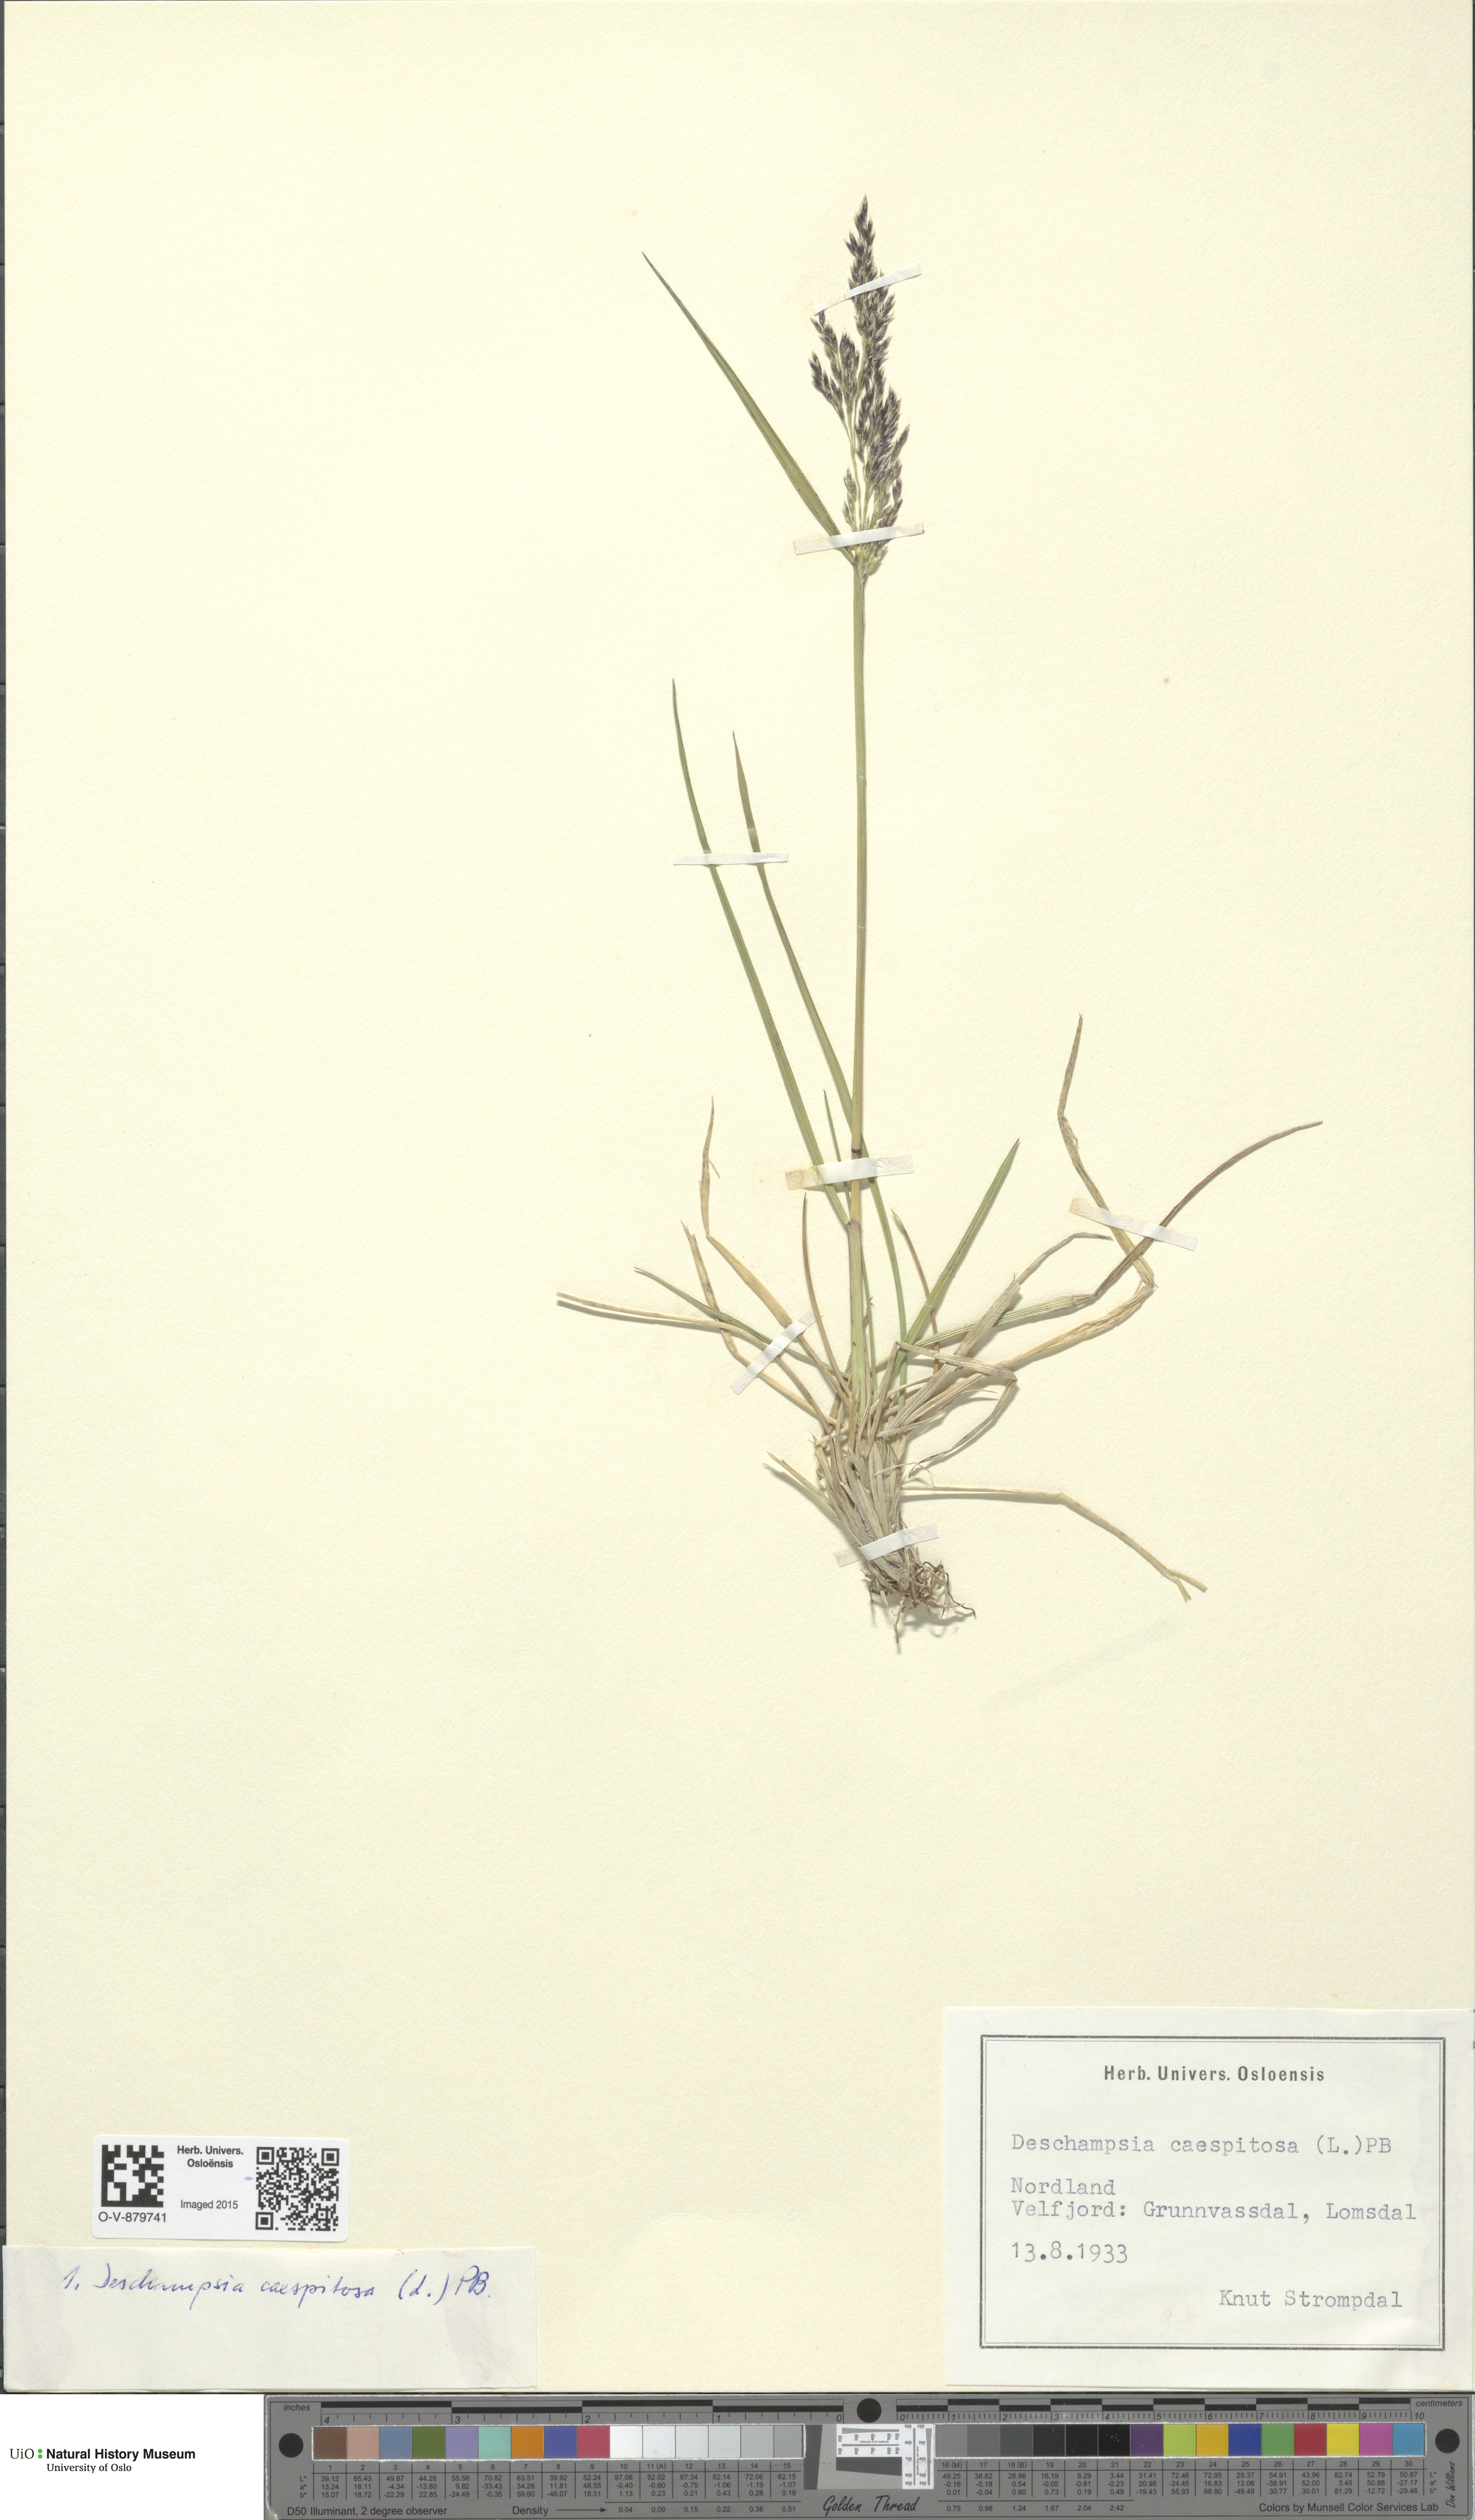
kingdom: Plantae
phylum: Tracheophyta
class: Liliopsida
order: Poales
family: Poaceae
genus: Deschampsia
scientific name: Deschampsia cespitosa
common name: Tufted hair-grass
